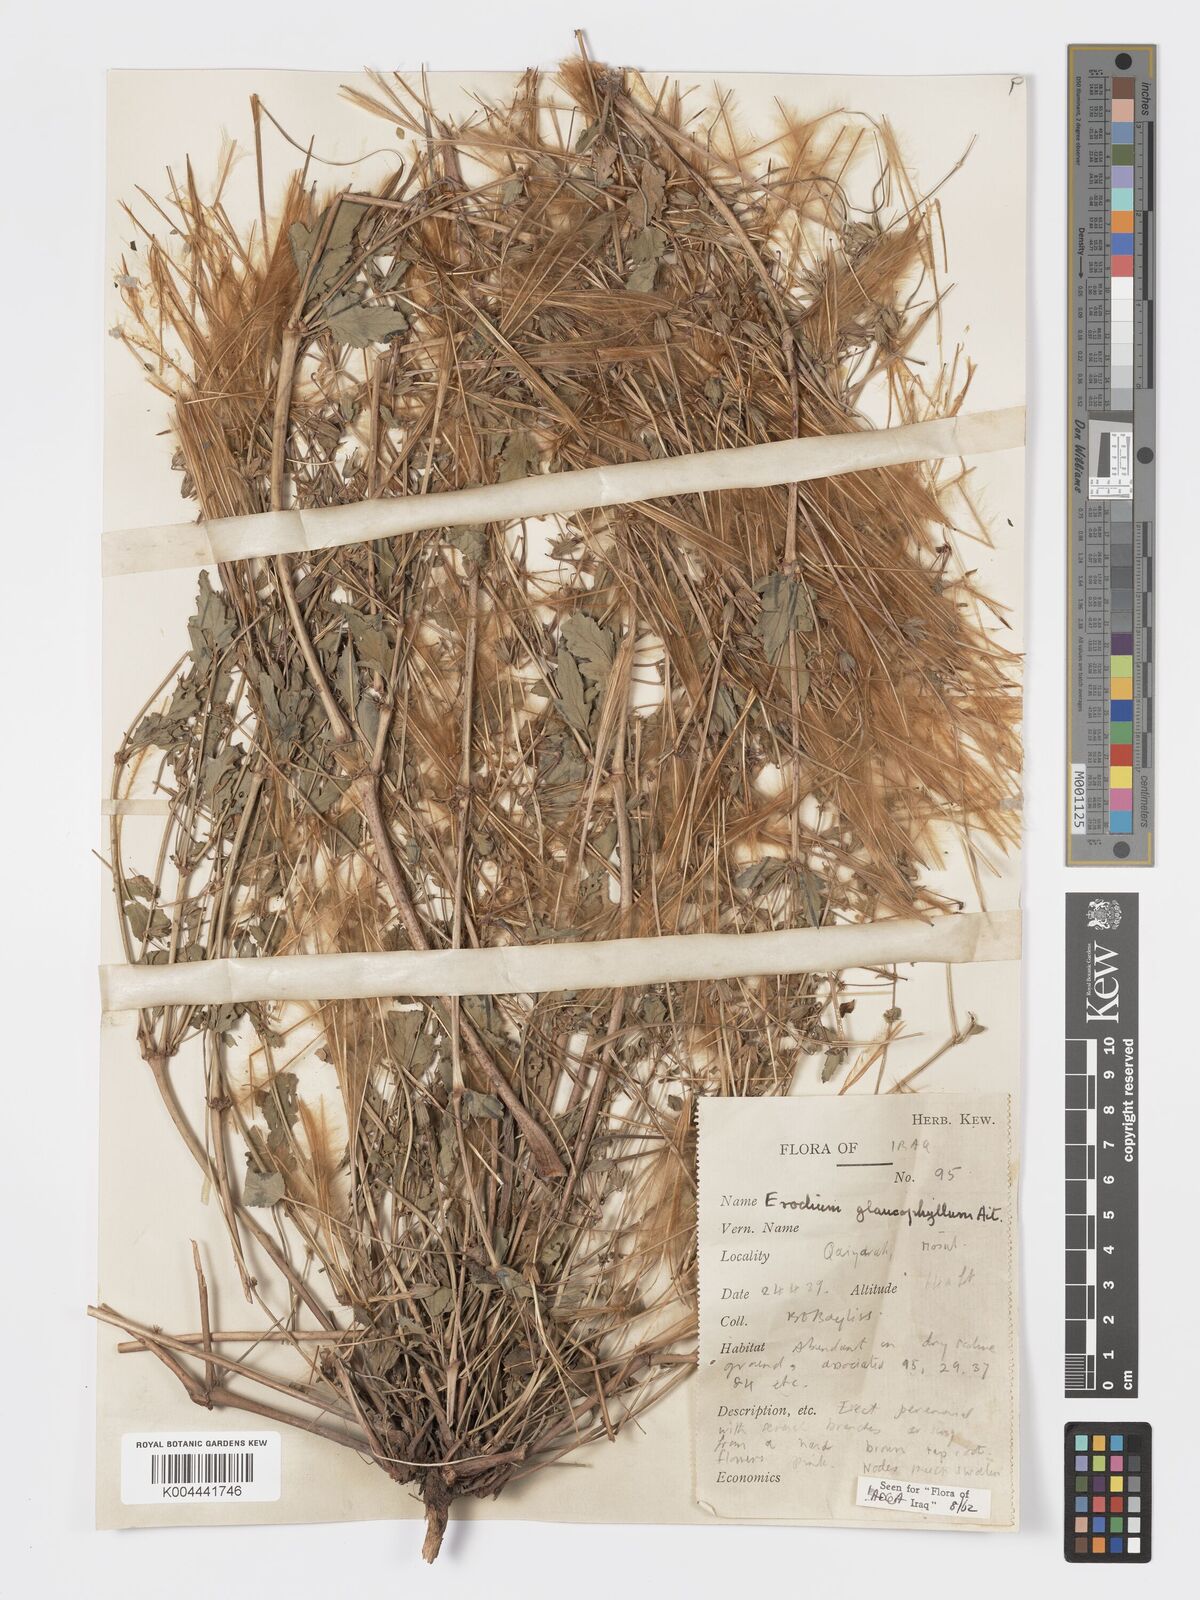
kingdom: Plantae
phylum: Tracheophyta
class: Magnoliopsida
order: Geraniales
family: Geraniaceae
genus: Erodium
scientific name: Erodium glaucophyllum
